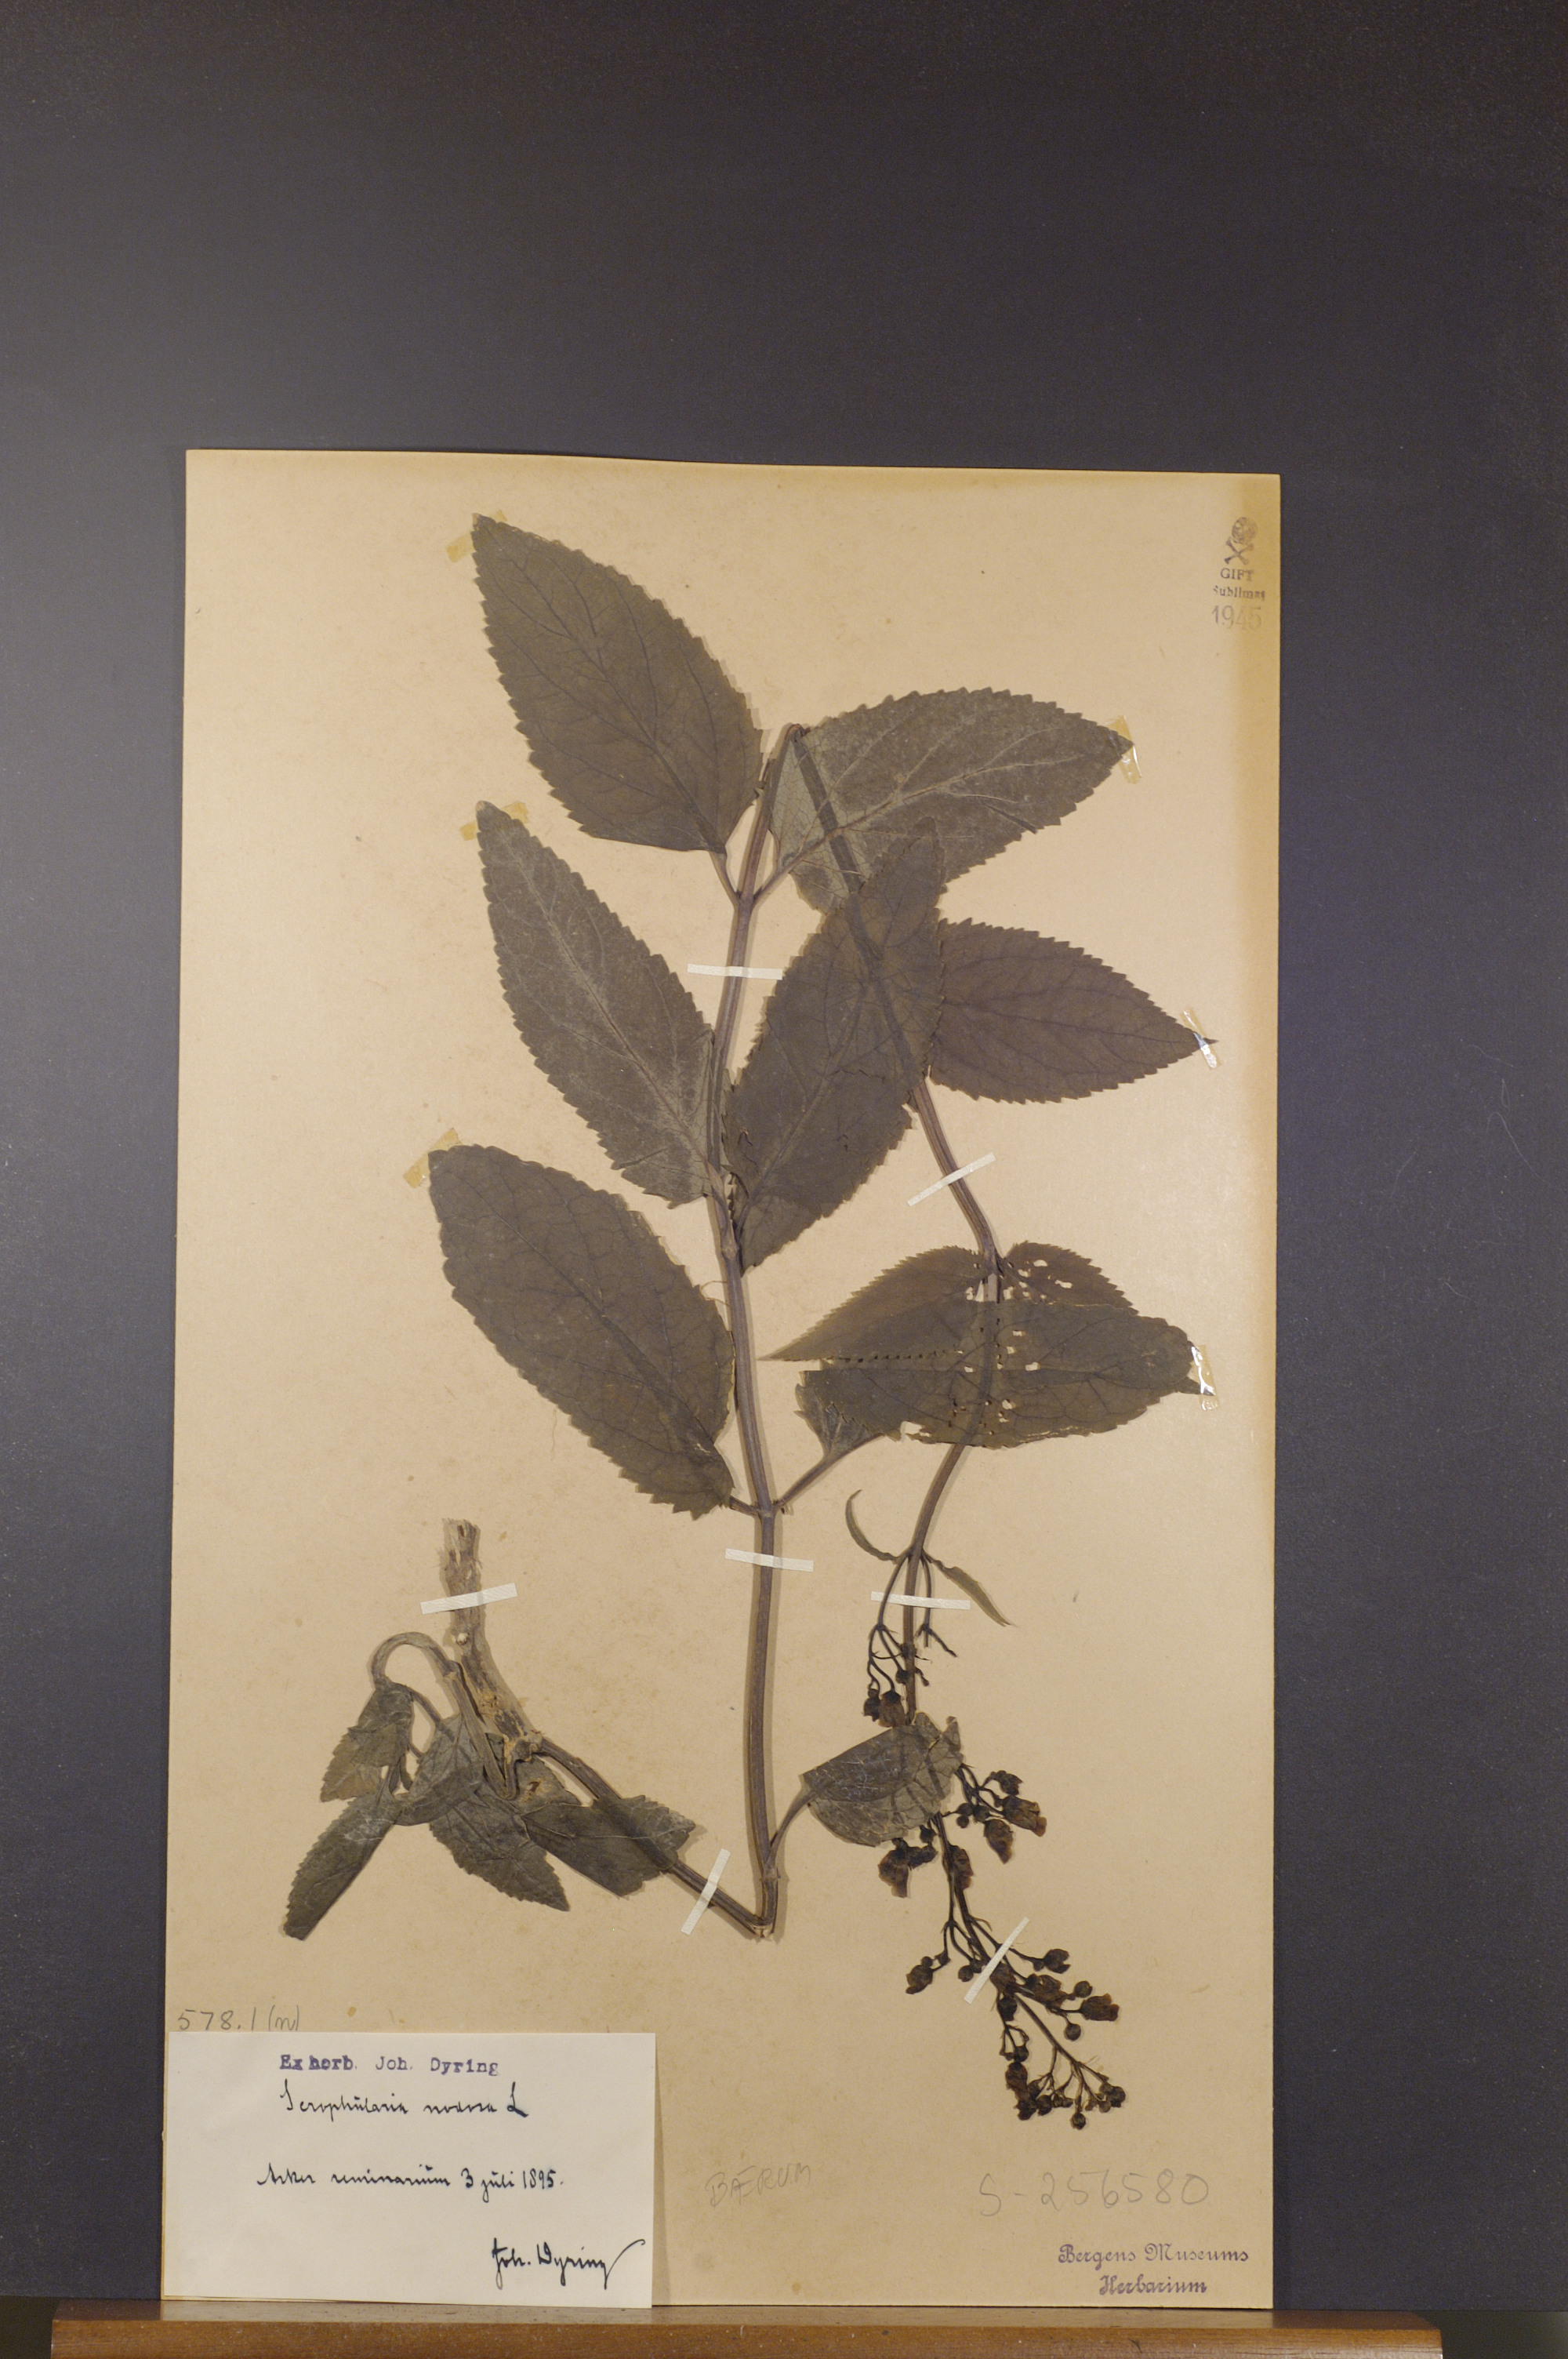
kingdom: Plantae
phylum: Tracheophyta
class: Magnoliopsida
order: Lamiales
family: Scrophulariaceae
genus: Scrophularia
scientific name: Scrophularia nodosa
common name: Common figwort
